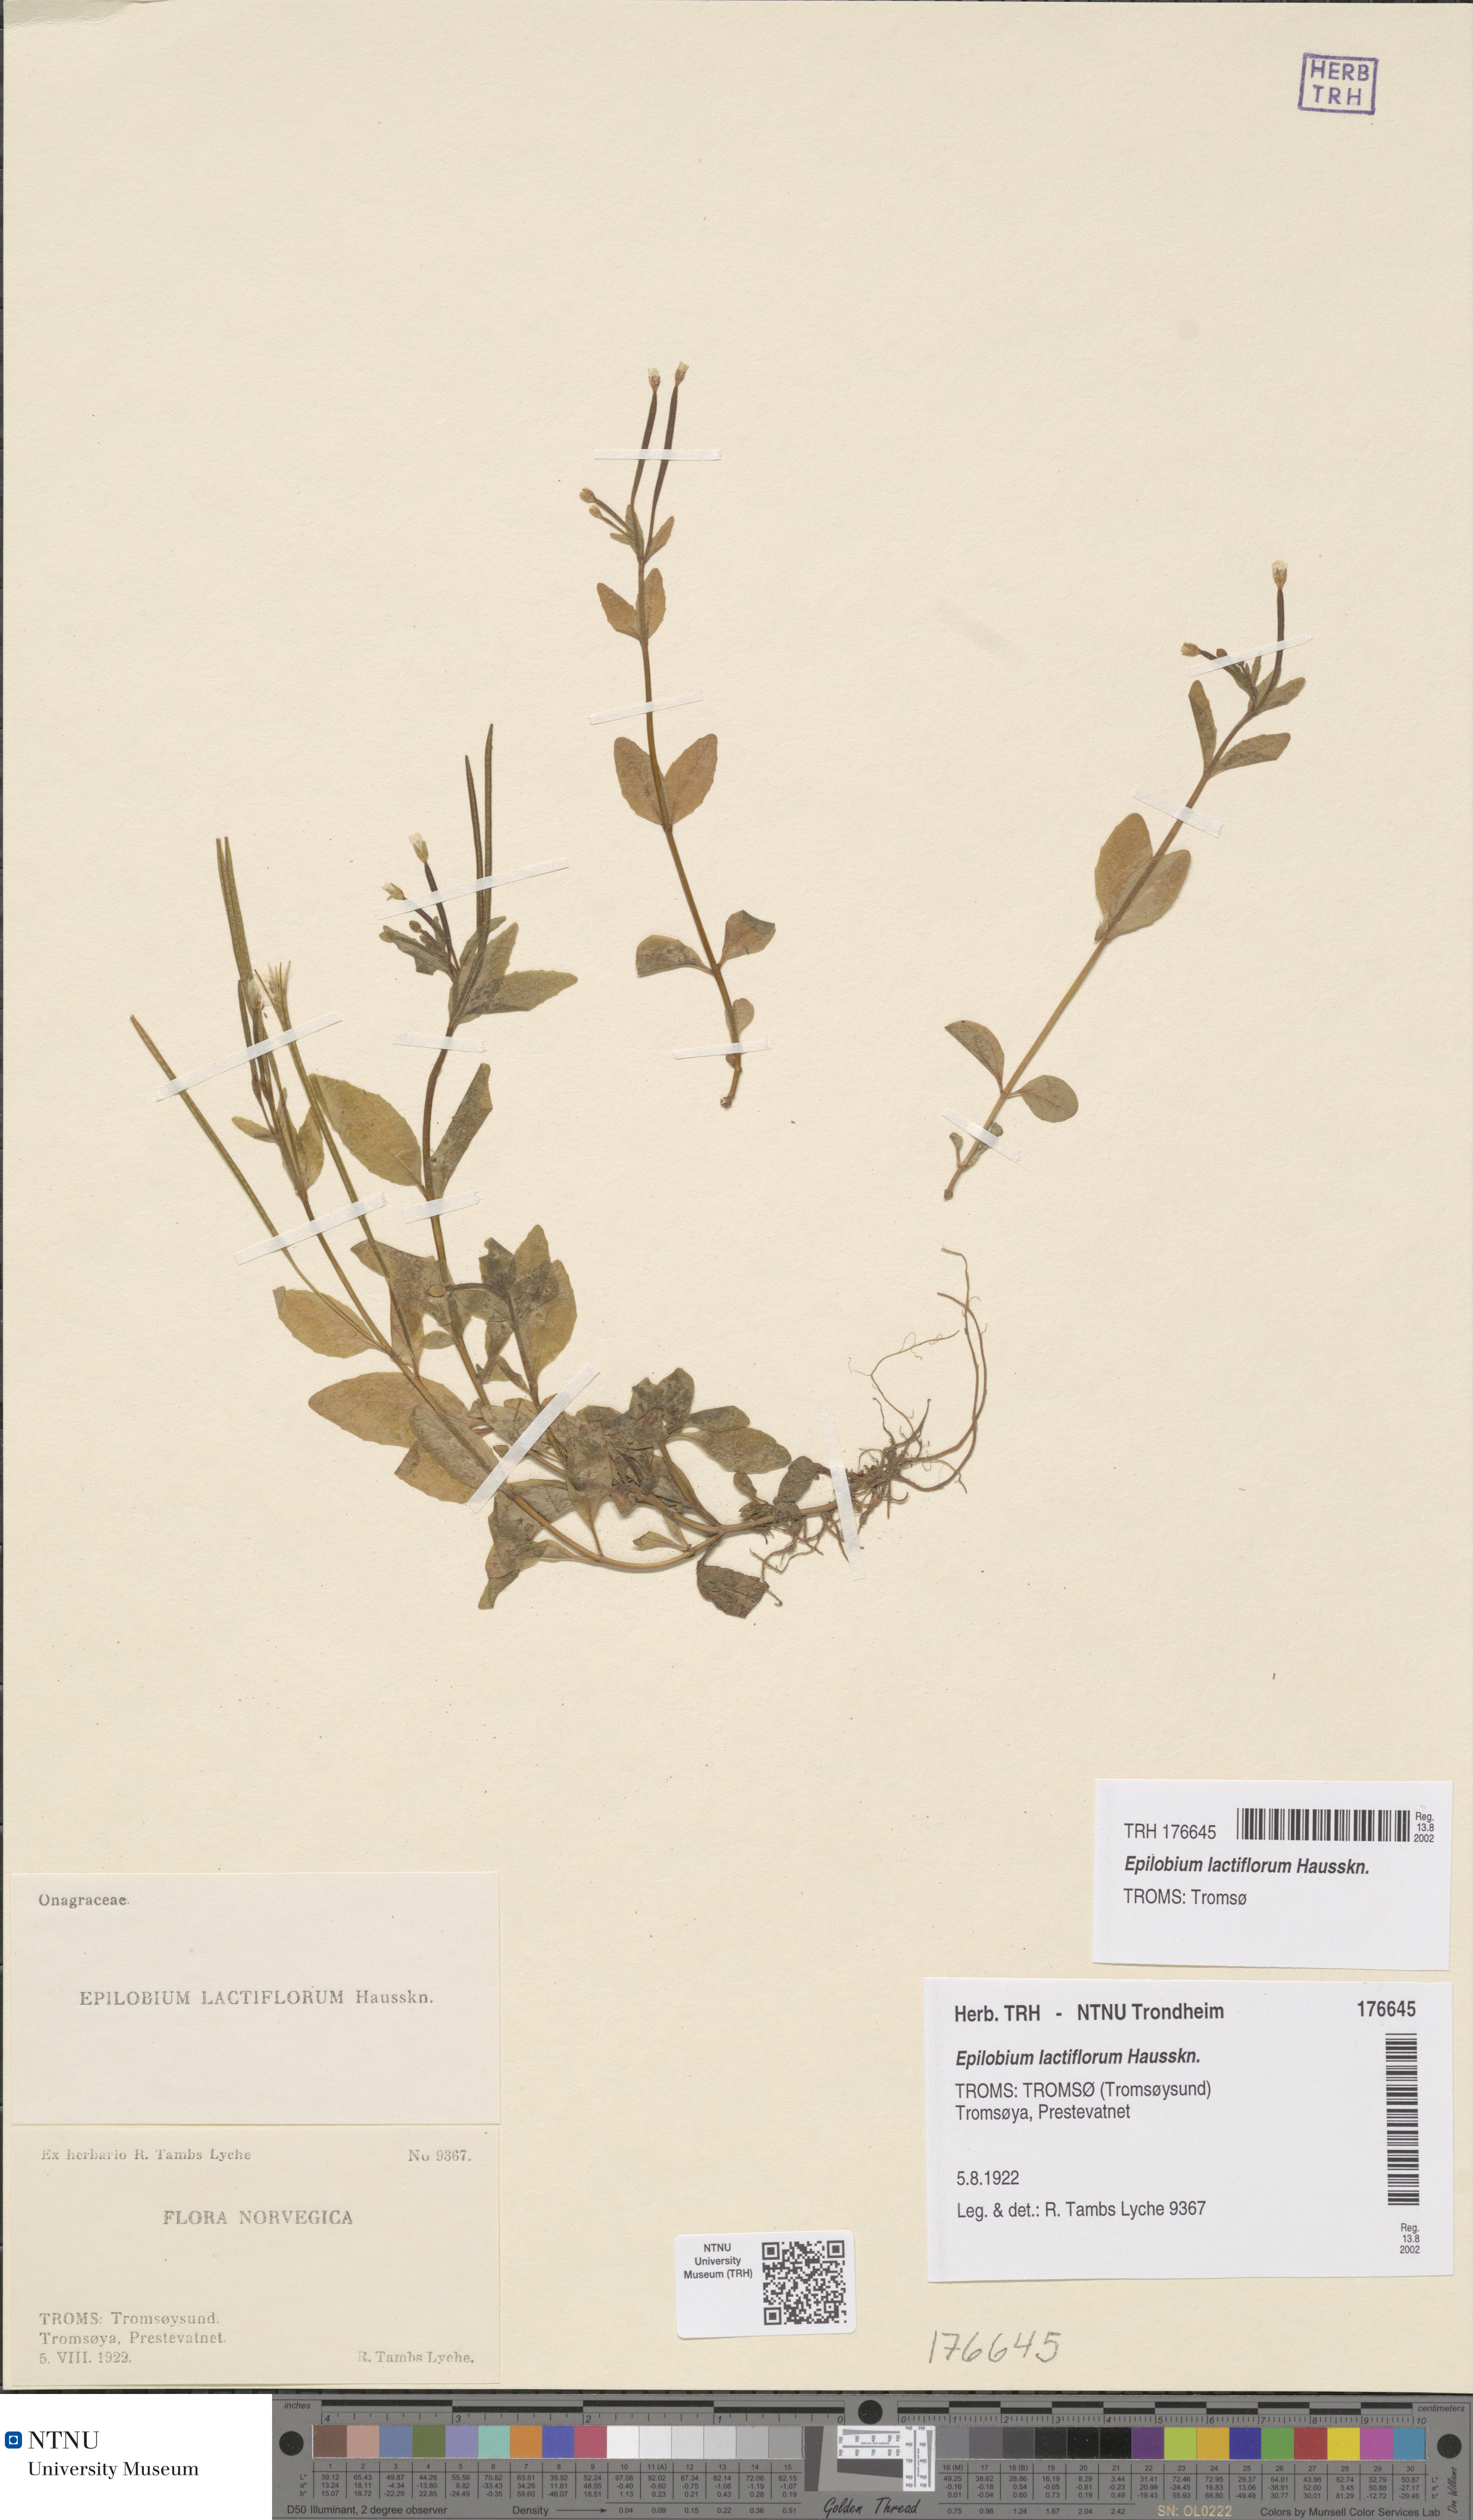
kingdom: Plantae
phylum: Tracheophyta
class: Magnoliopsida
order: Myrtales
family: Onagraceae
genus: Epilobium
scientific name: Epilobium lactiflorum
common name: Milkflower willowherb
